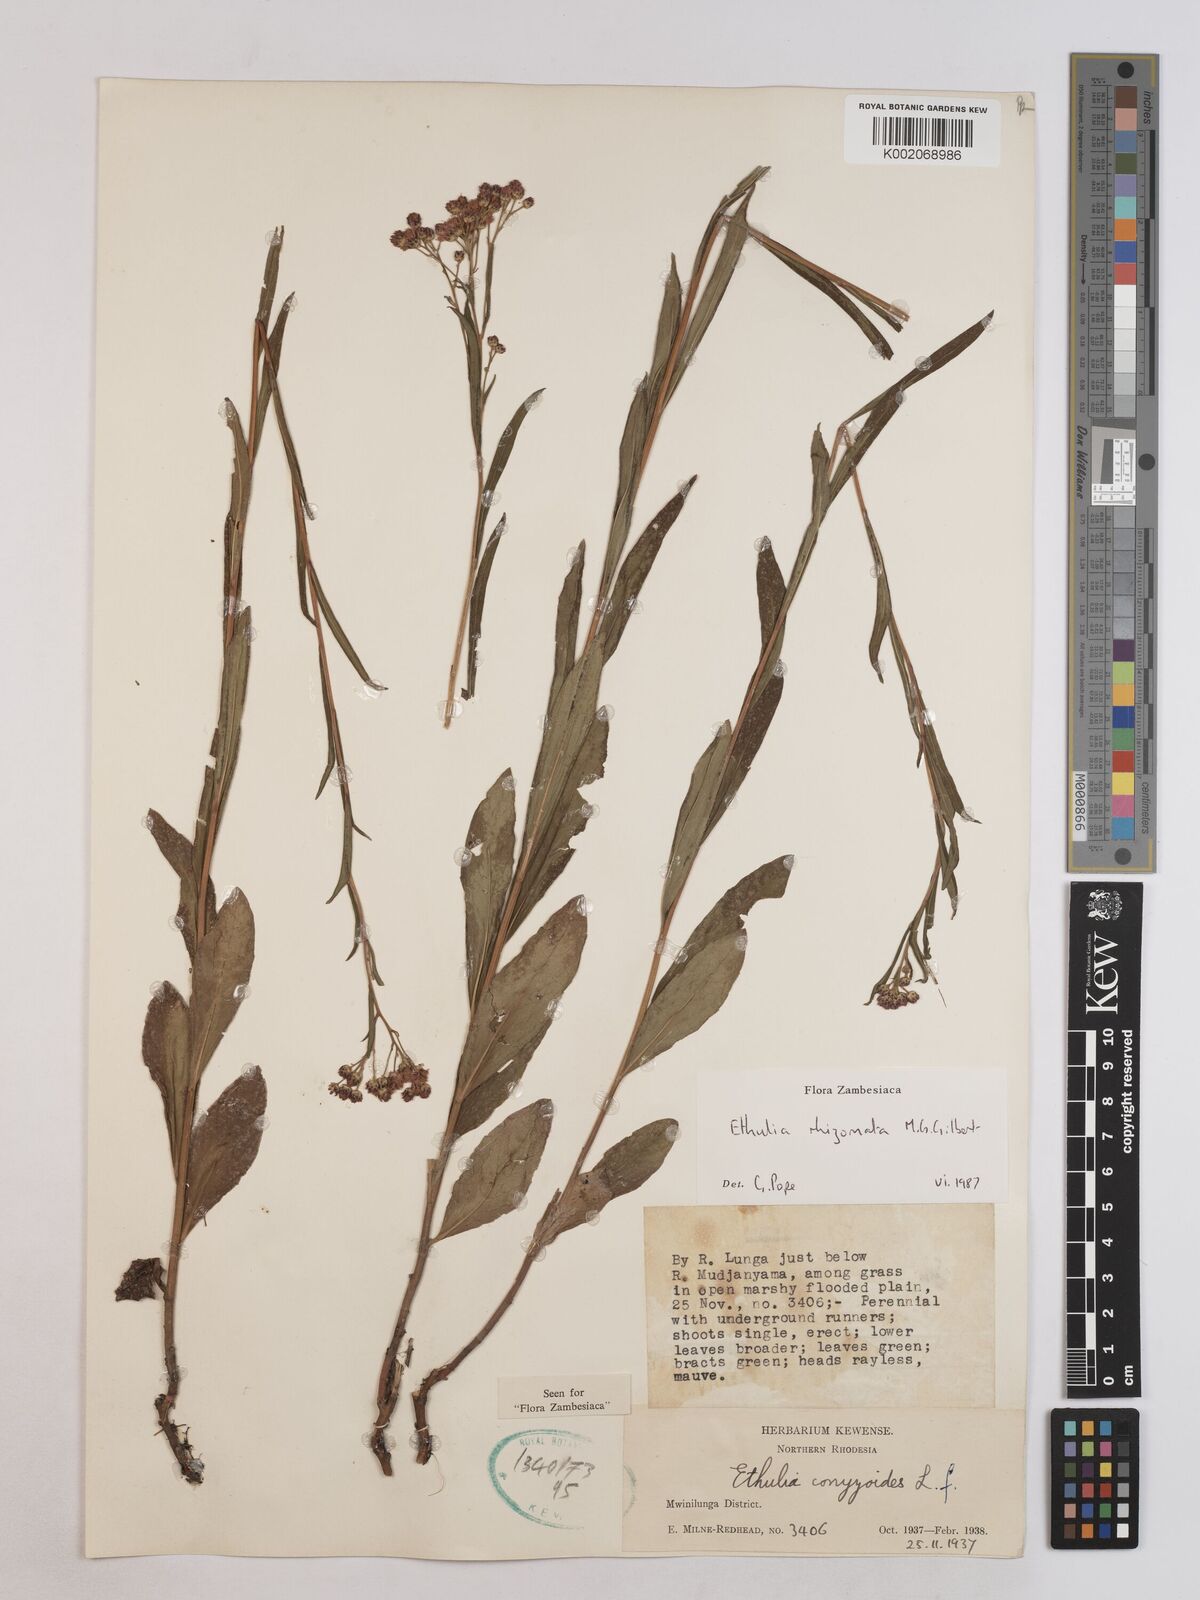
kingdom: Plantae
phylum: Tracheophyta
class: Magnoliopsida
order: Asterales
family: Asteraceae
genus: Ethulia
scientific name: Ethulia rhizomata
